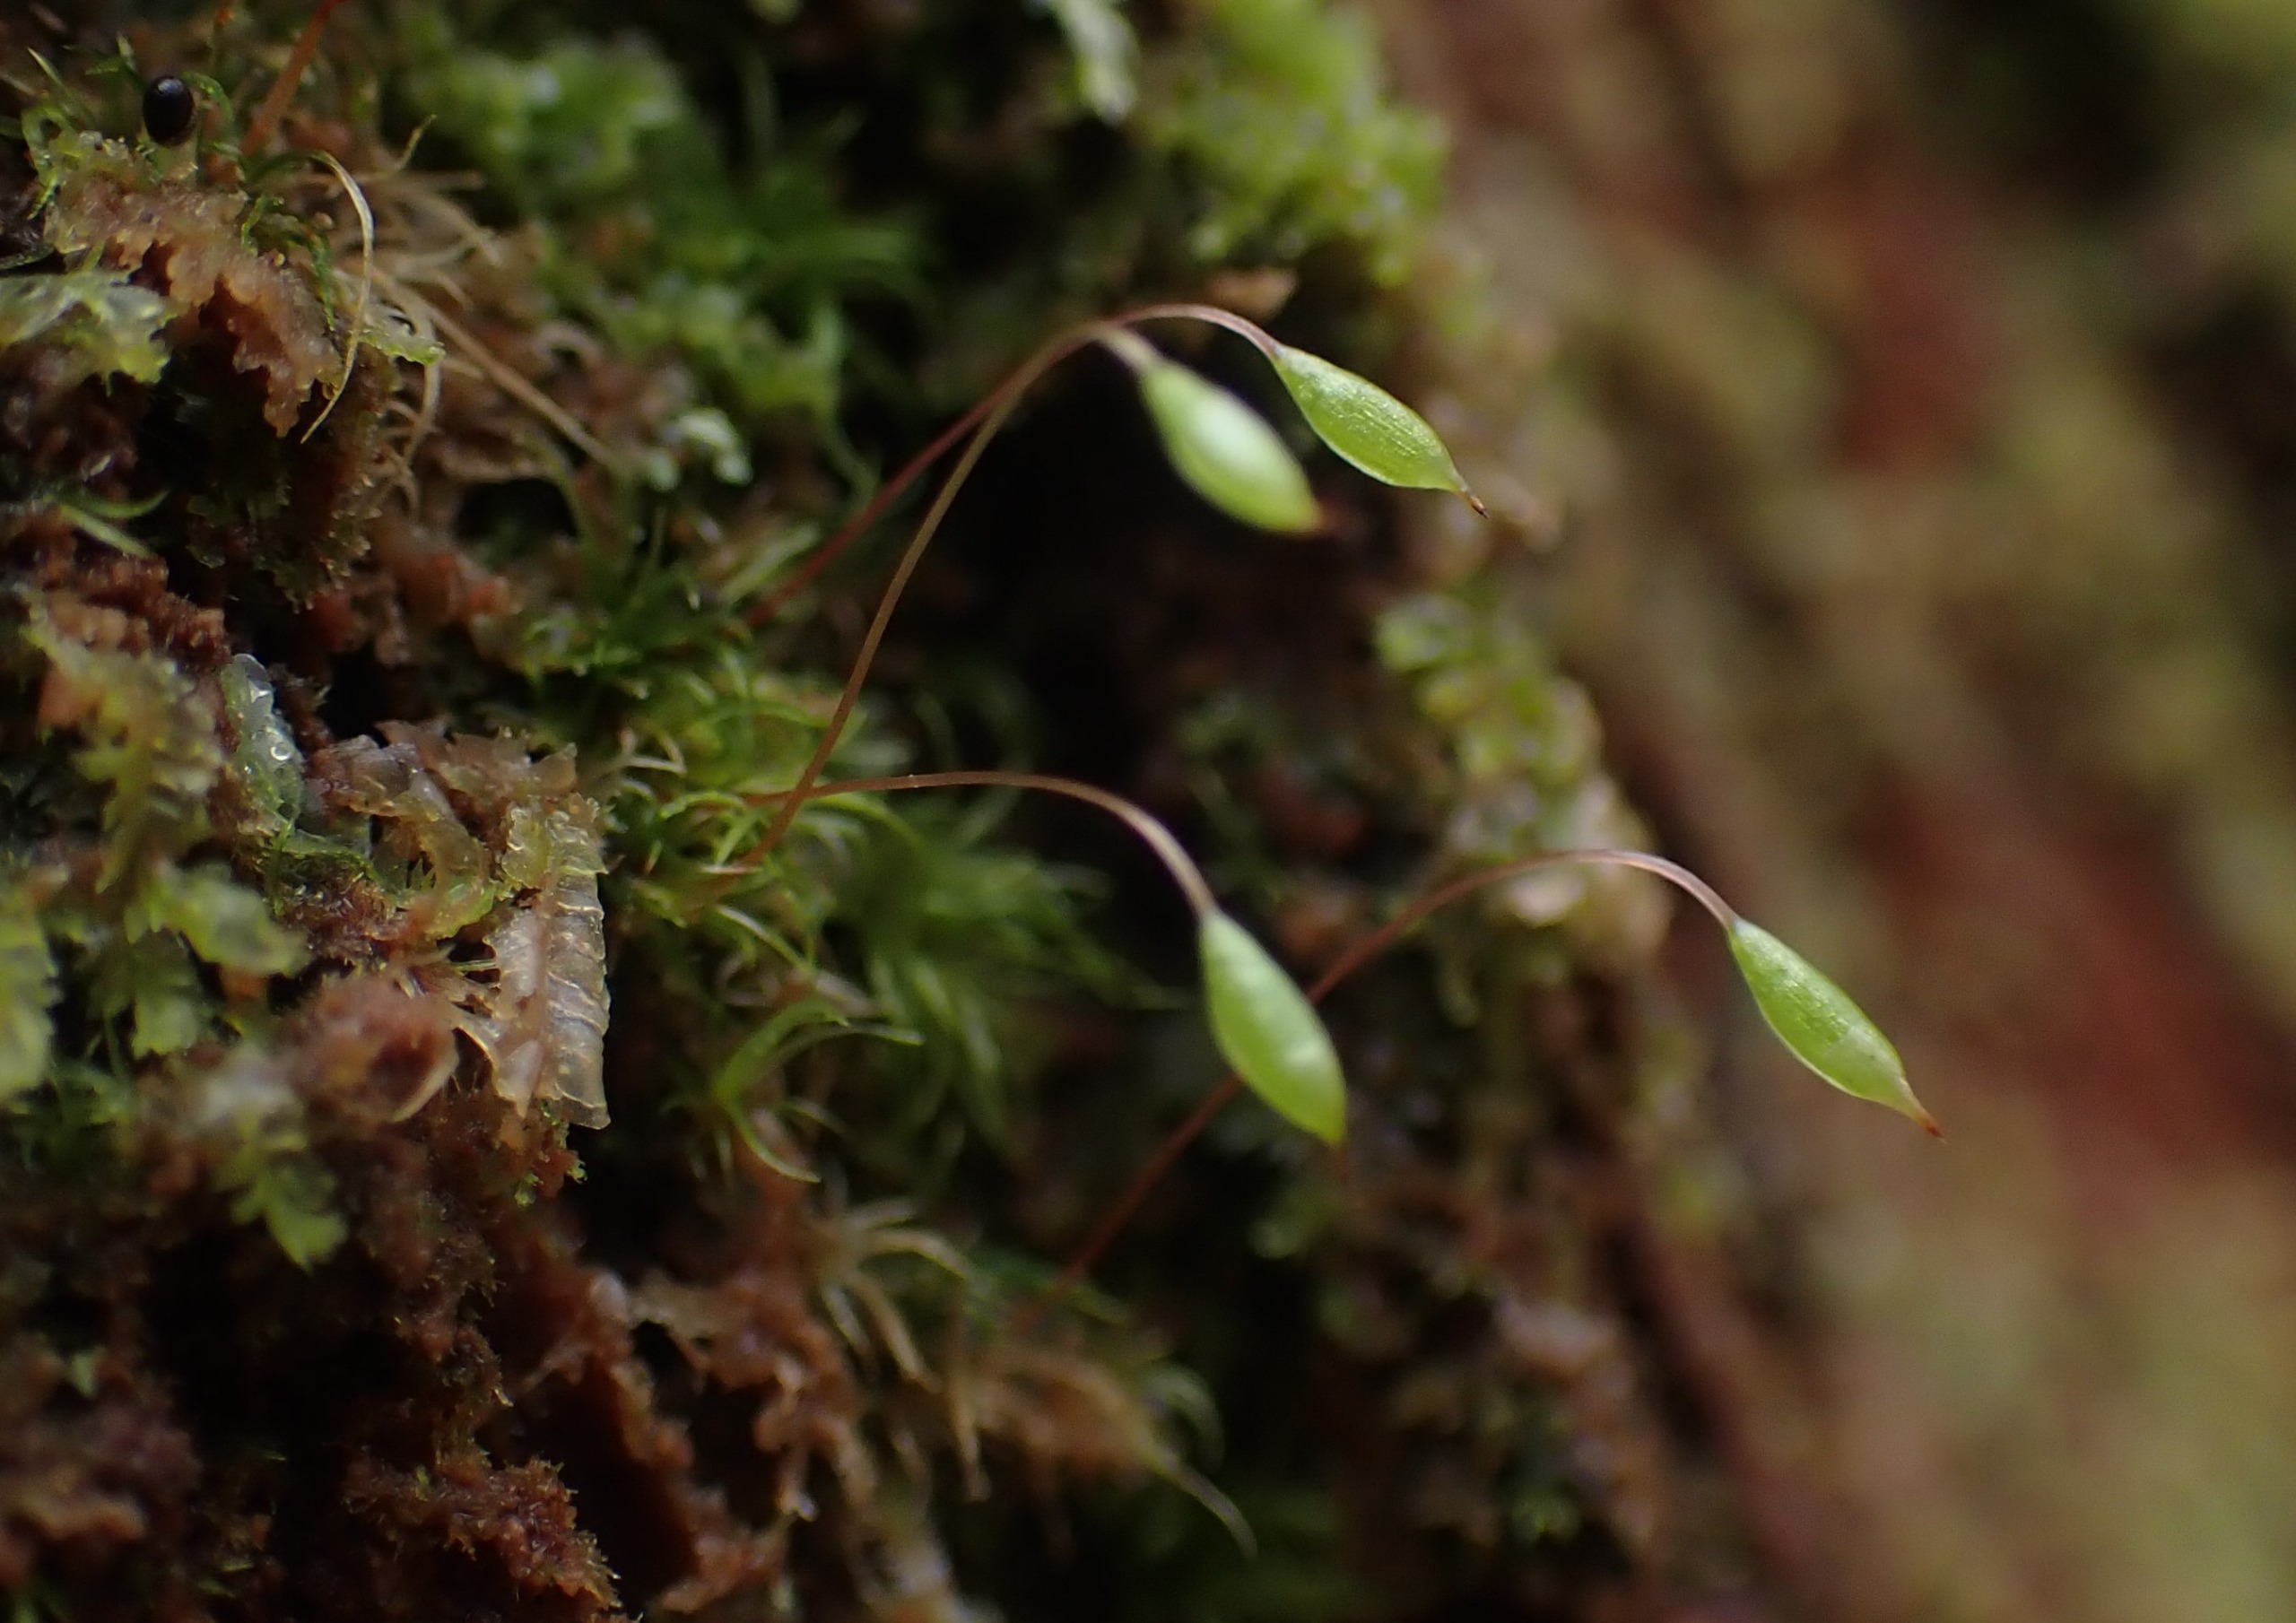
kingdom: Plantae
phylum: Bryophyta
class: Bryopsida
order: Orthodontiales
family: Orthodontiaceae
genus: Orthodontium
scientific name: Orthodontium lineare
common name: Smalbladet plysmos
